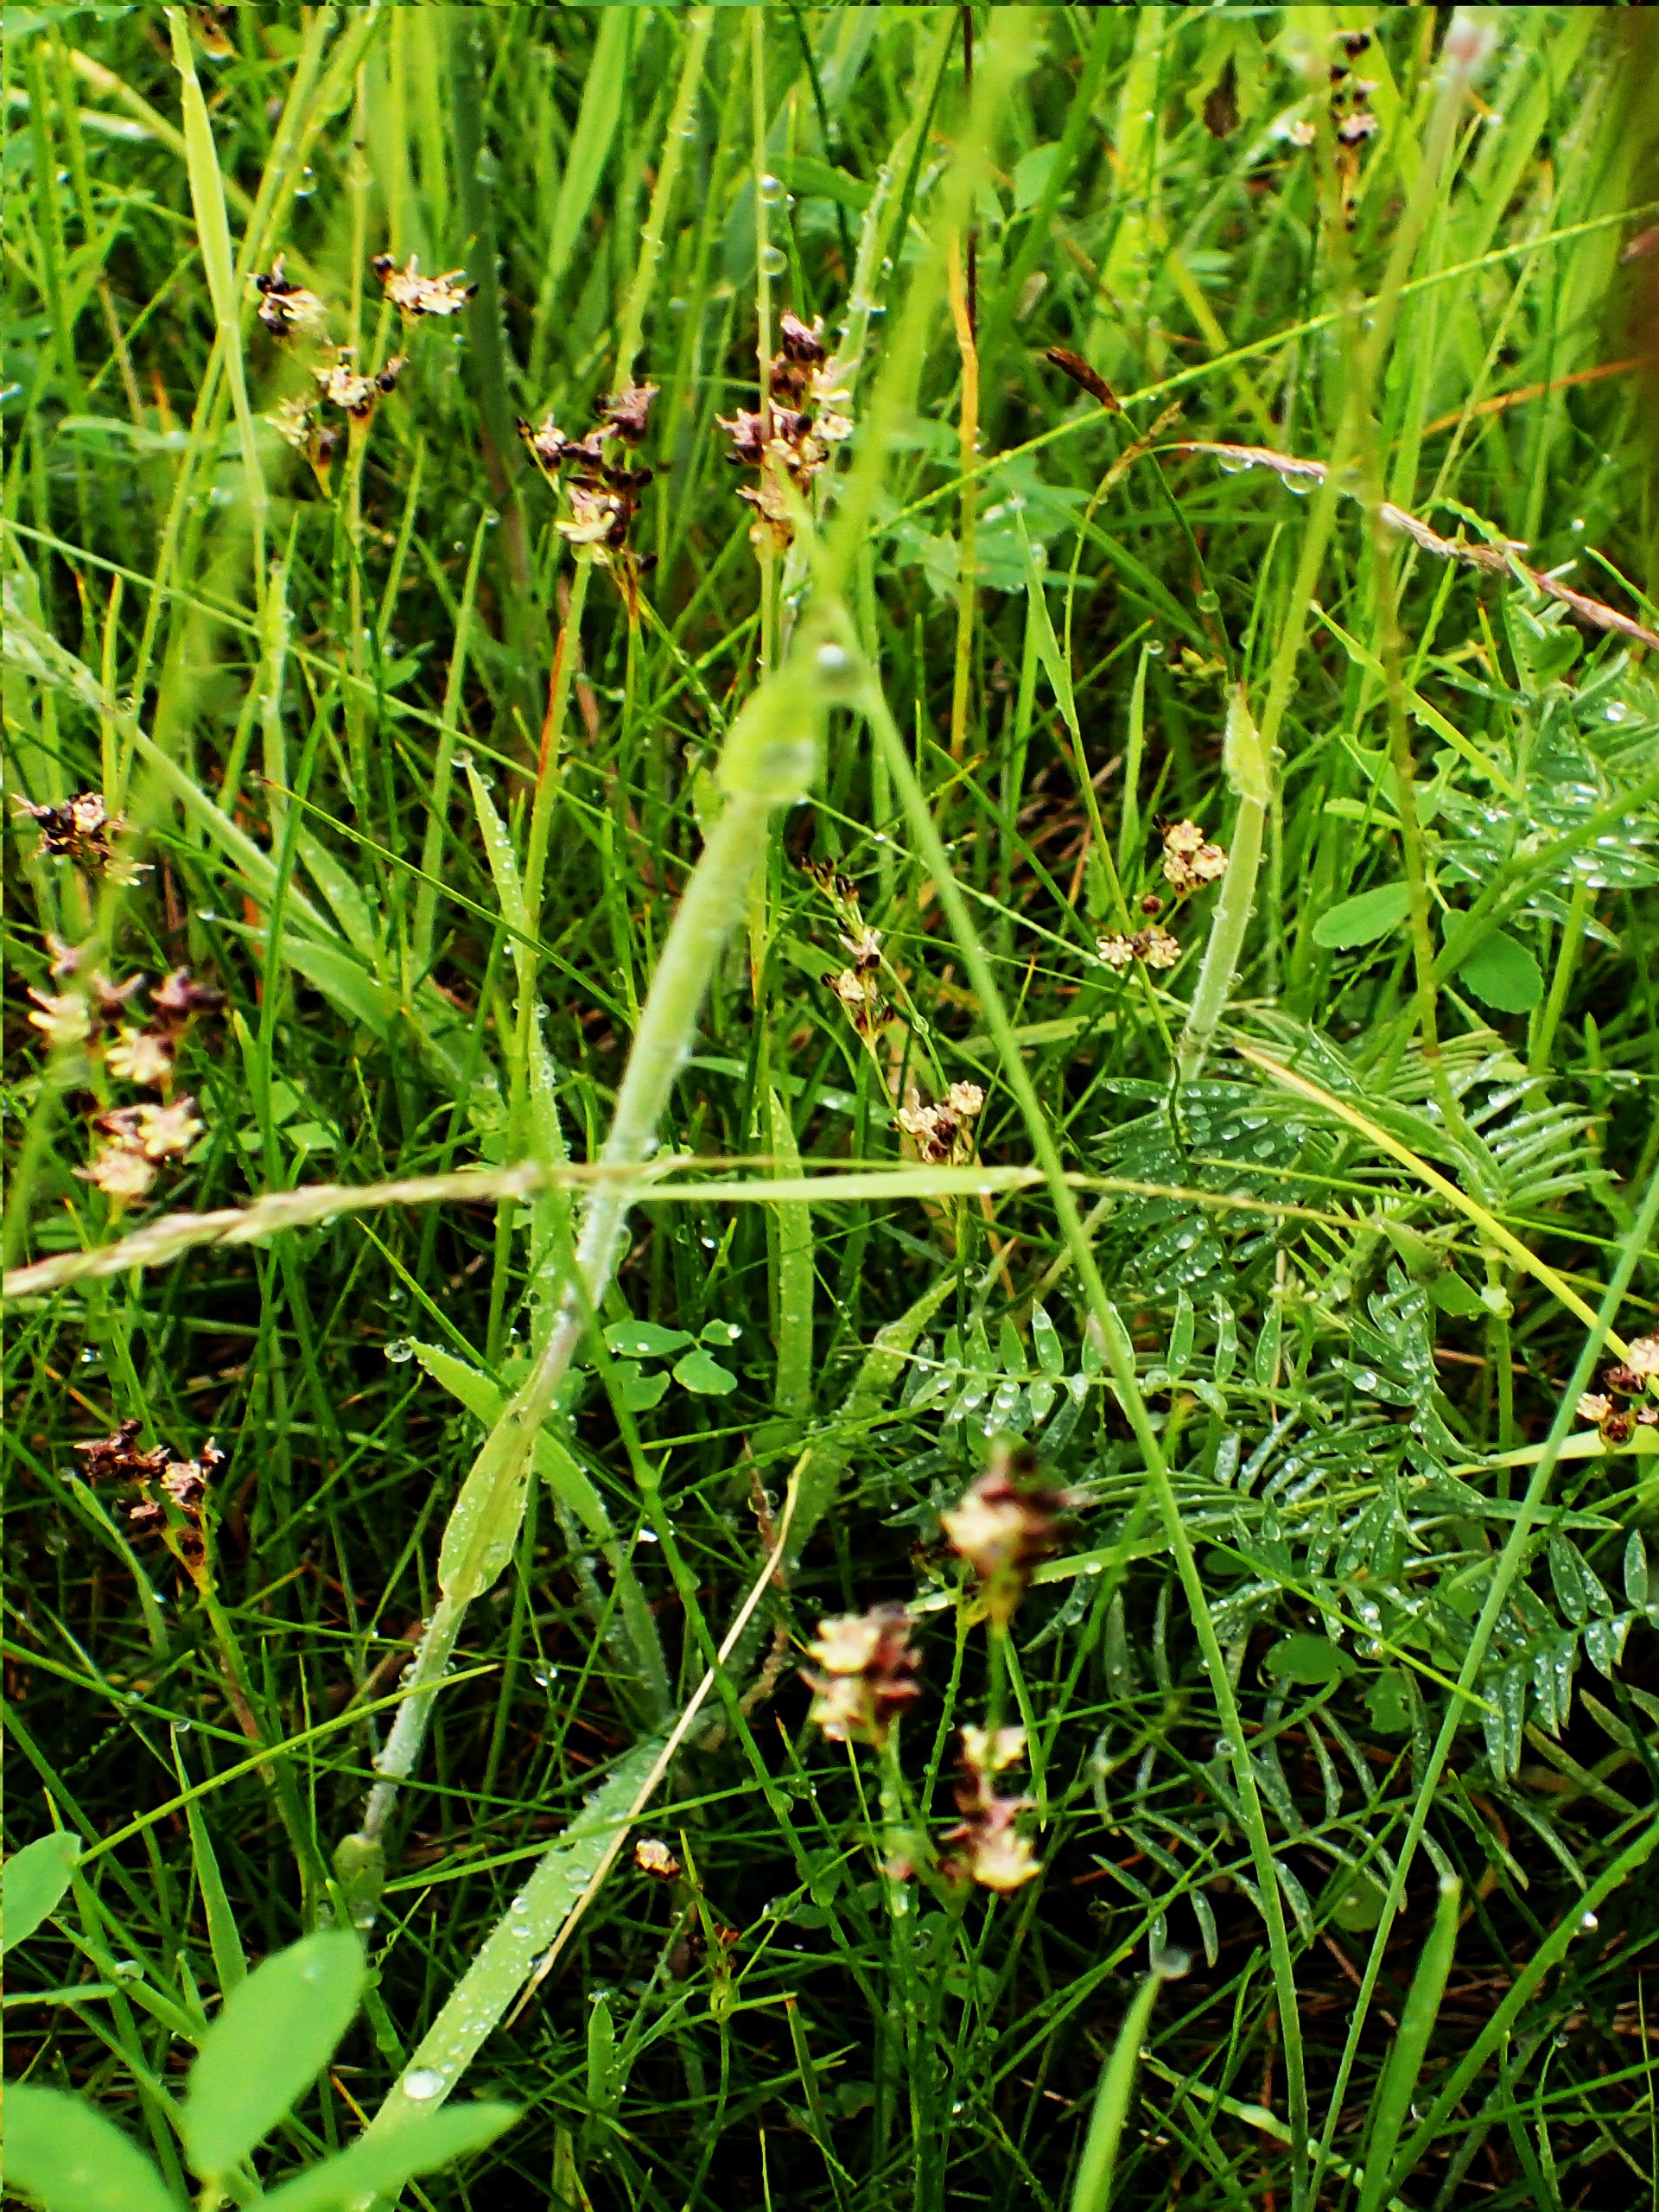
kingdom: Plantae
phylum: Tracheophyta
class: Liliopsida
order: Poales
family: Juncaceae
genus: Juncus
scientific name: Juncus gerardi
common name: Harril
